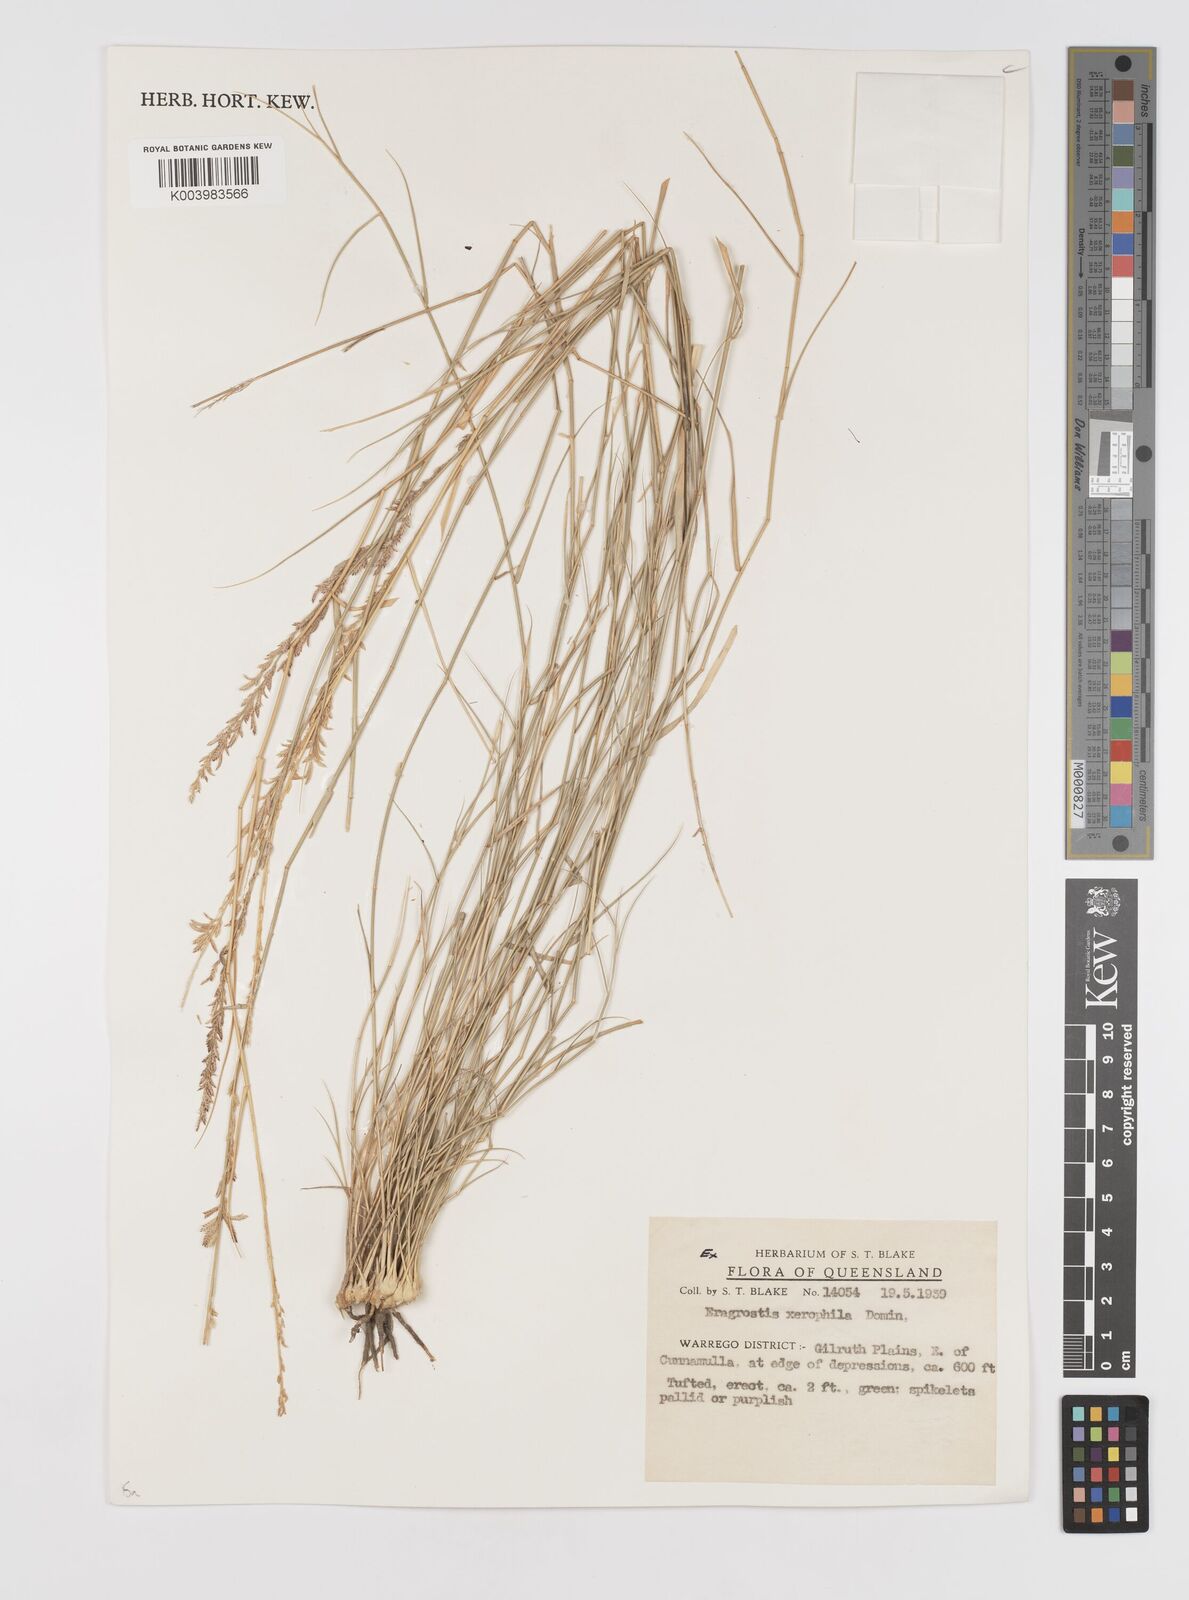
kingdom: Plantae
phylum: Tracheophyta
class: Liliopsida
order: Poales
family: Poaceae
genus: Eragrostis
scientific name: Eragrostis xerophila
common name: Wire wandarrie grass
